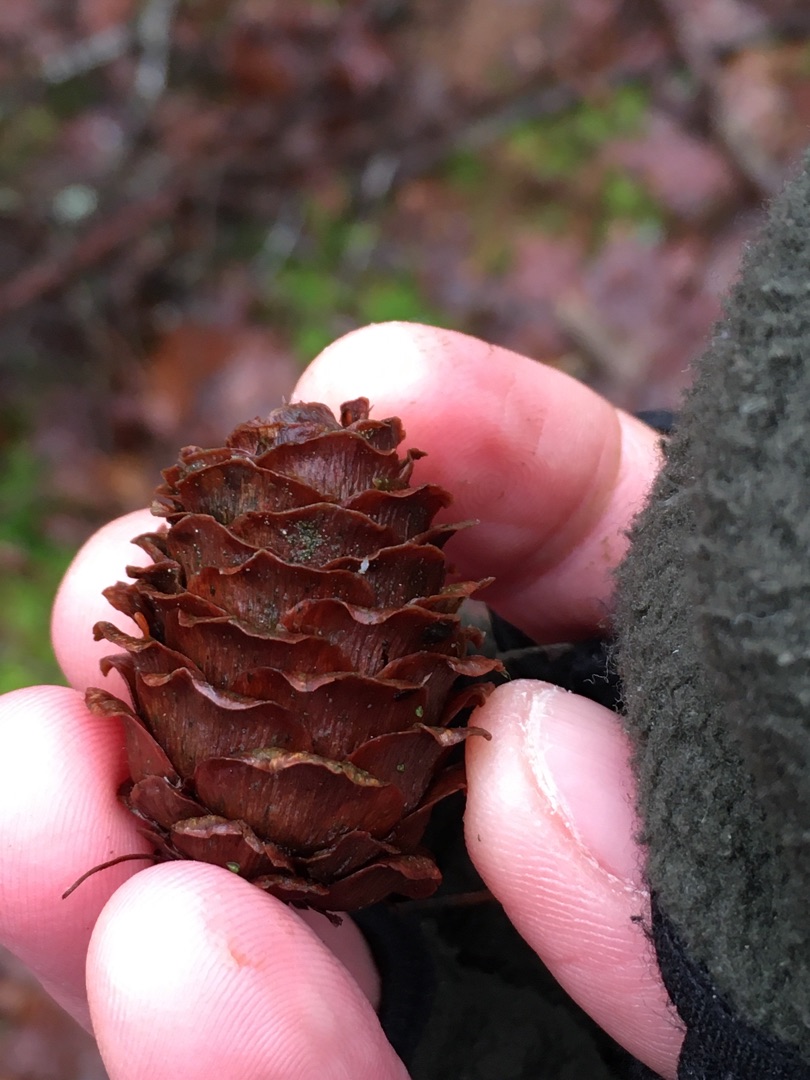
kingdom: Plantae
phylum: Tracheophyta
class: Pinopsida
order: Pinales
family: Pinaceae
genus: Larix
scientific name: Larix kaempferi
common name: Japansk lærk
